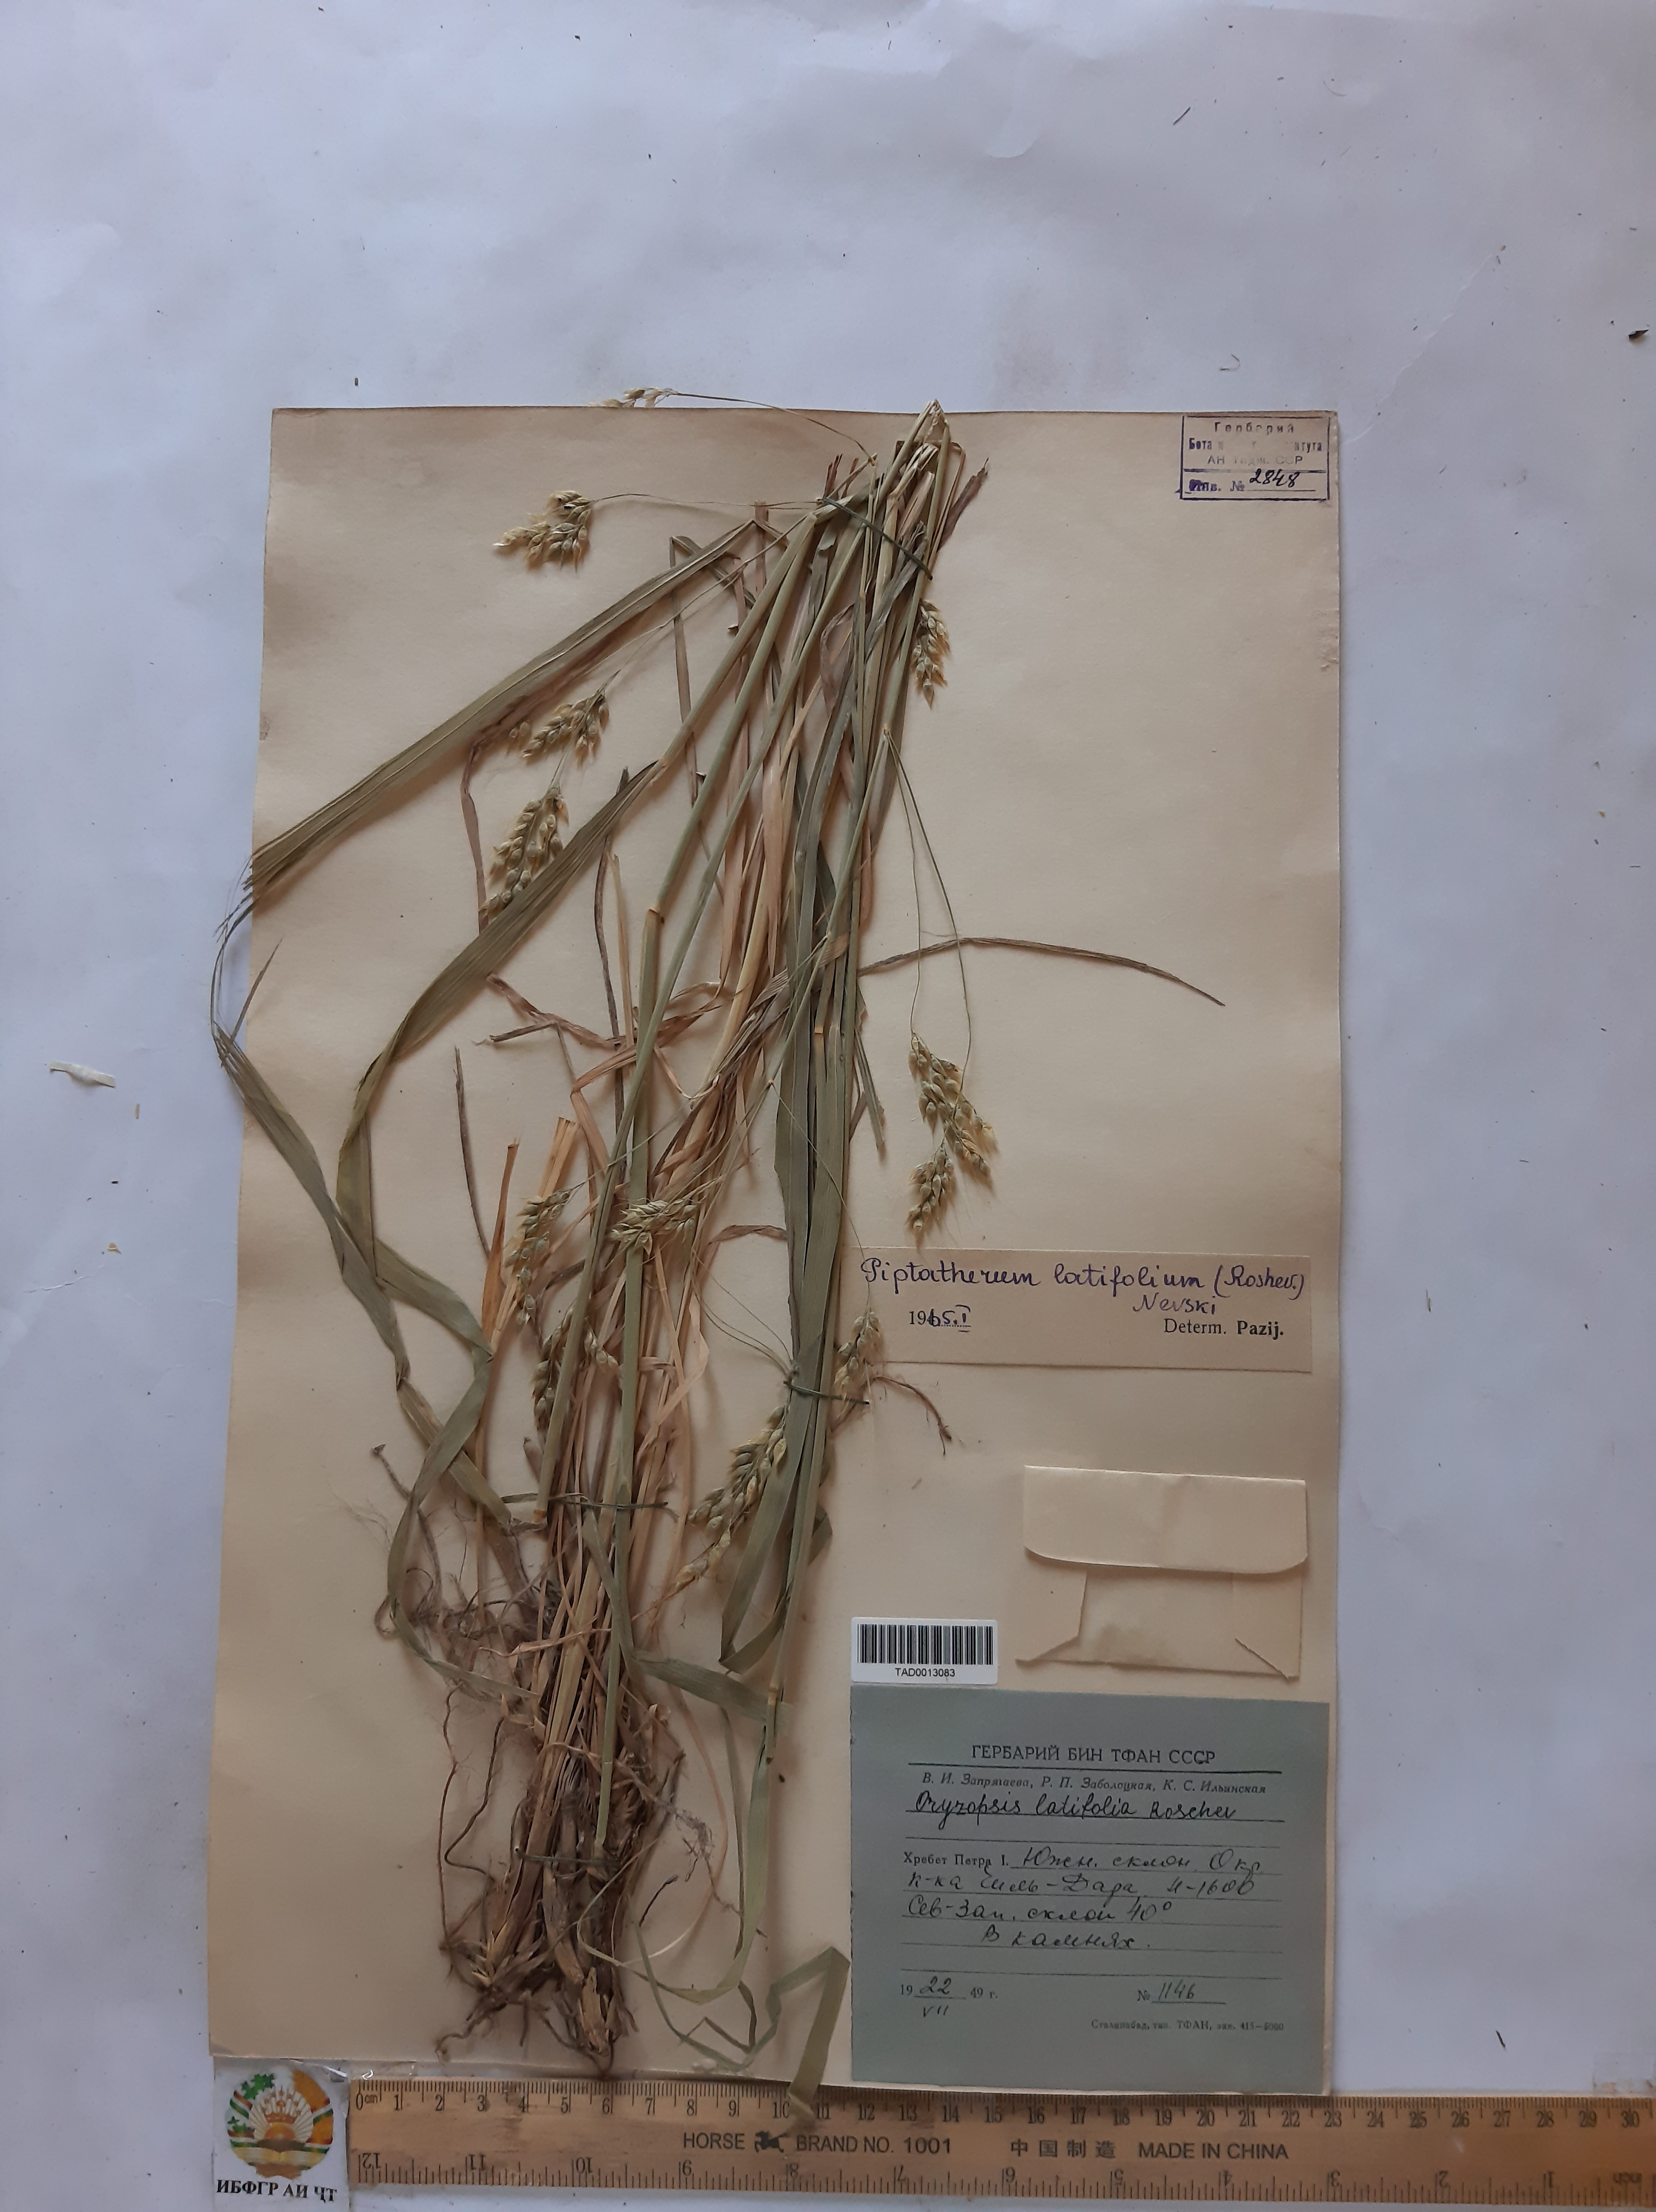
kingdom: Plantae
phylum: Tracheophyta
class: Liliopsida
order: Poales
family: Poaceae
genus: Piptatherum
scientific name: Piptatherum latifolium
